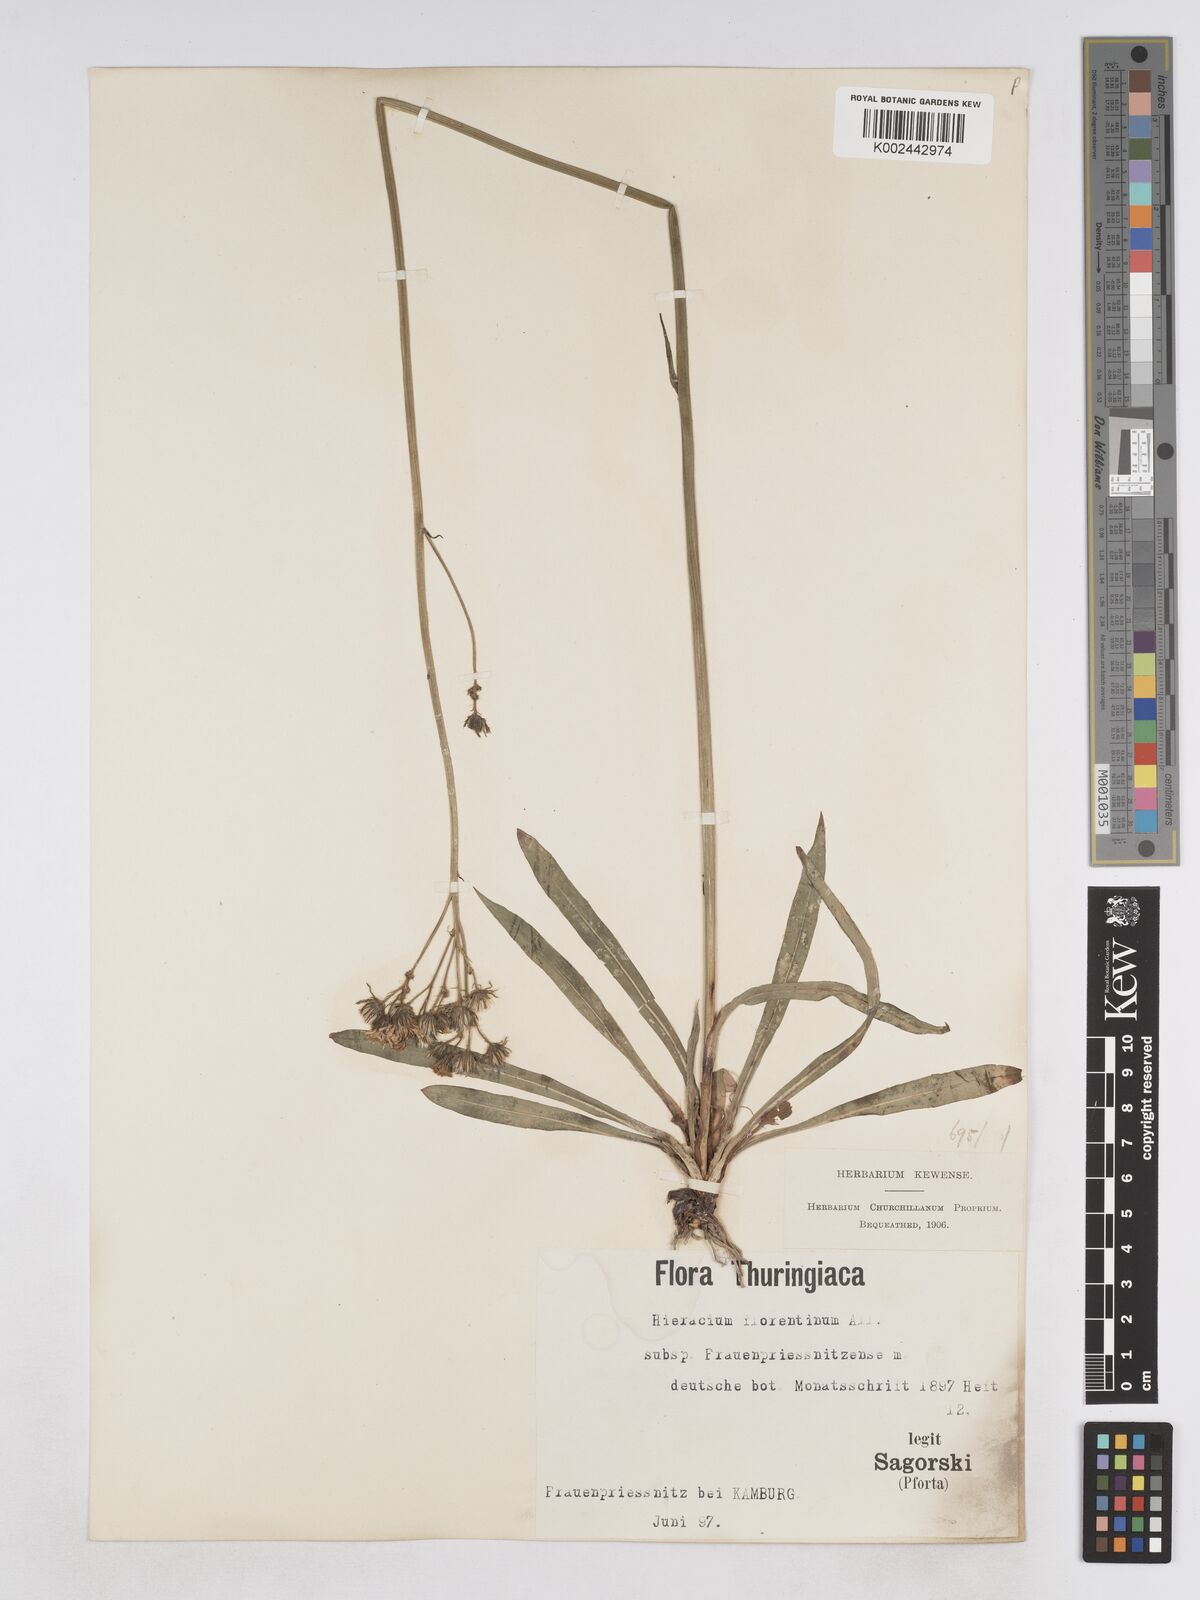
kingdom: Plantae
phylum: Tracheophyta
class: Magnoliopsida
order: Asterales
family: Asteraceae
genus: Pilosella
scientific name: Pilosella piloselloides
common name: Glaucous king-devil
